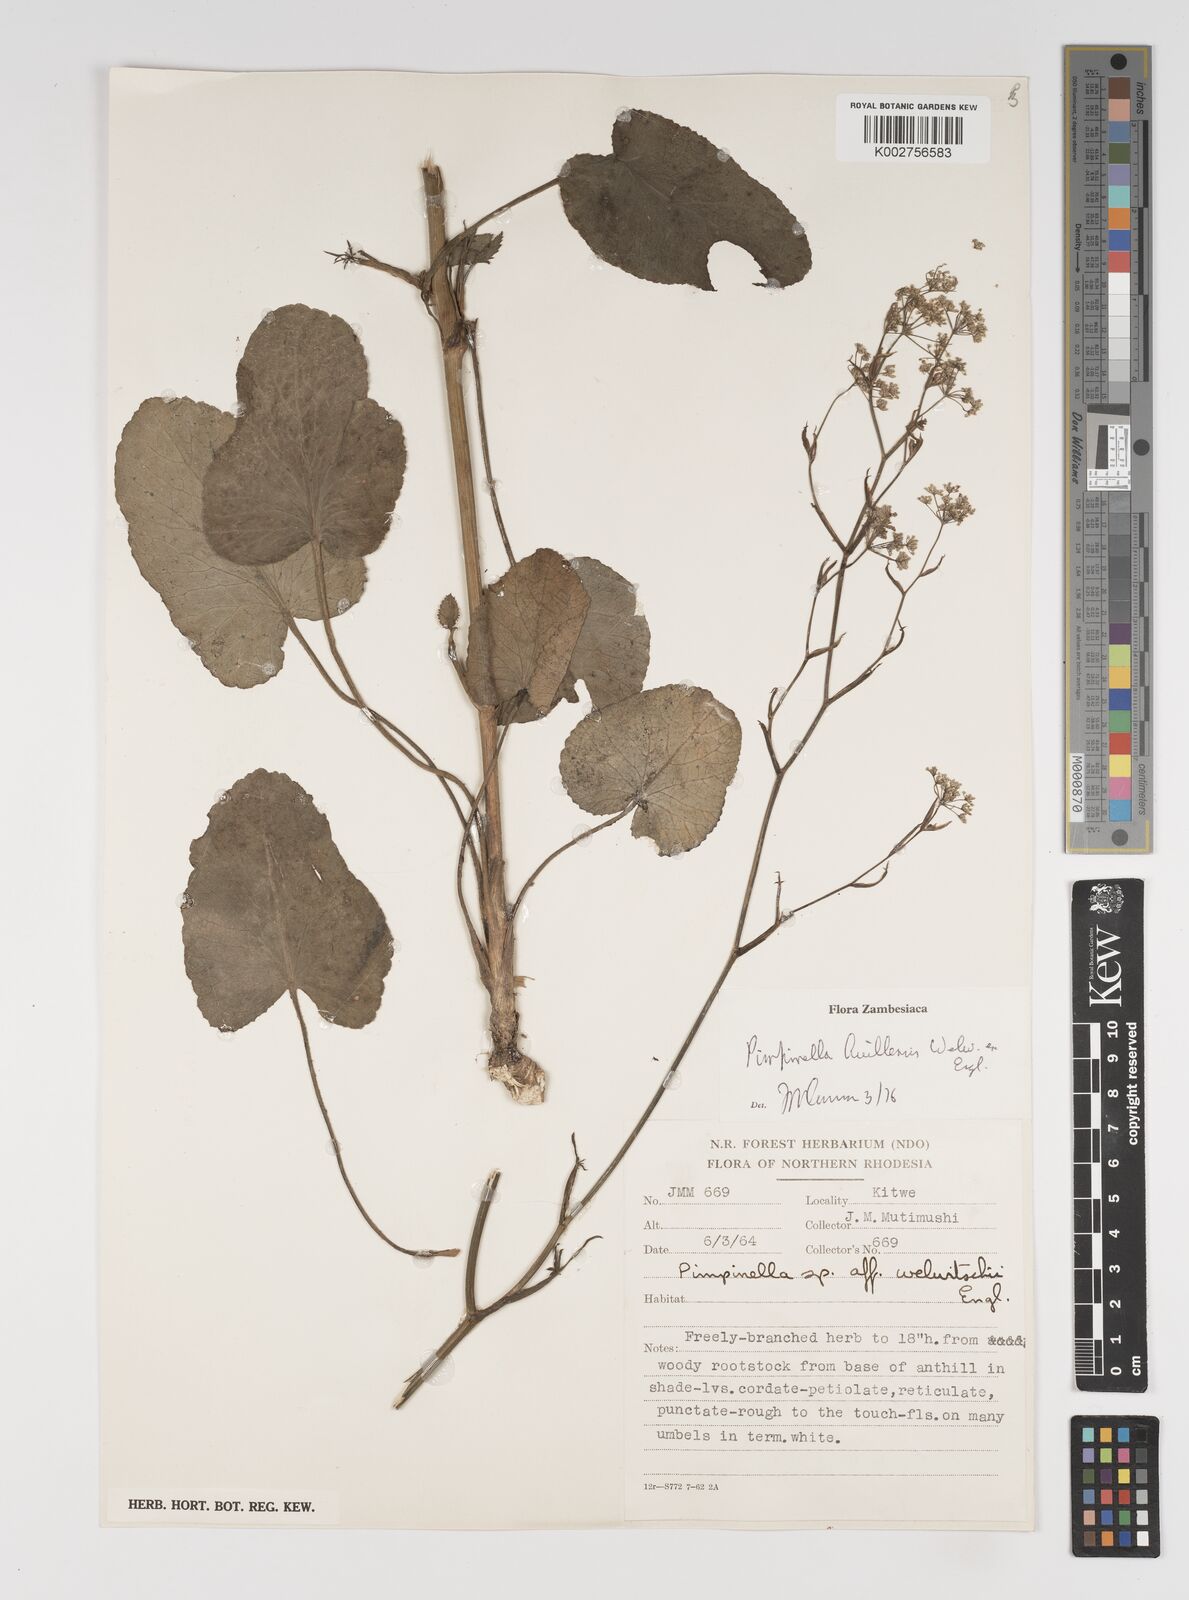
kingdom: Plantae
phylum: Tracheophyta
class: Magnoliopsida
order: Apiales
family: Apiaceae
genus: Pimpinella
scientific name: Pimpinella huillensis
